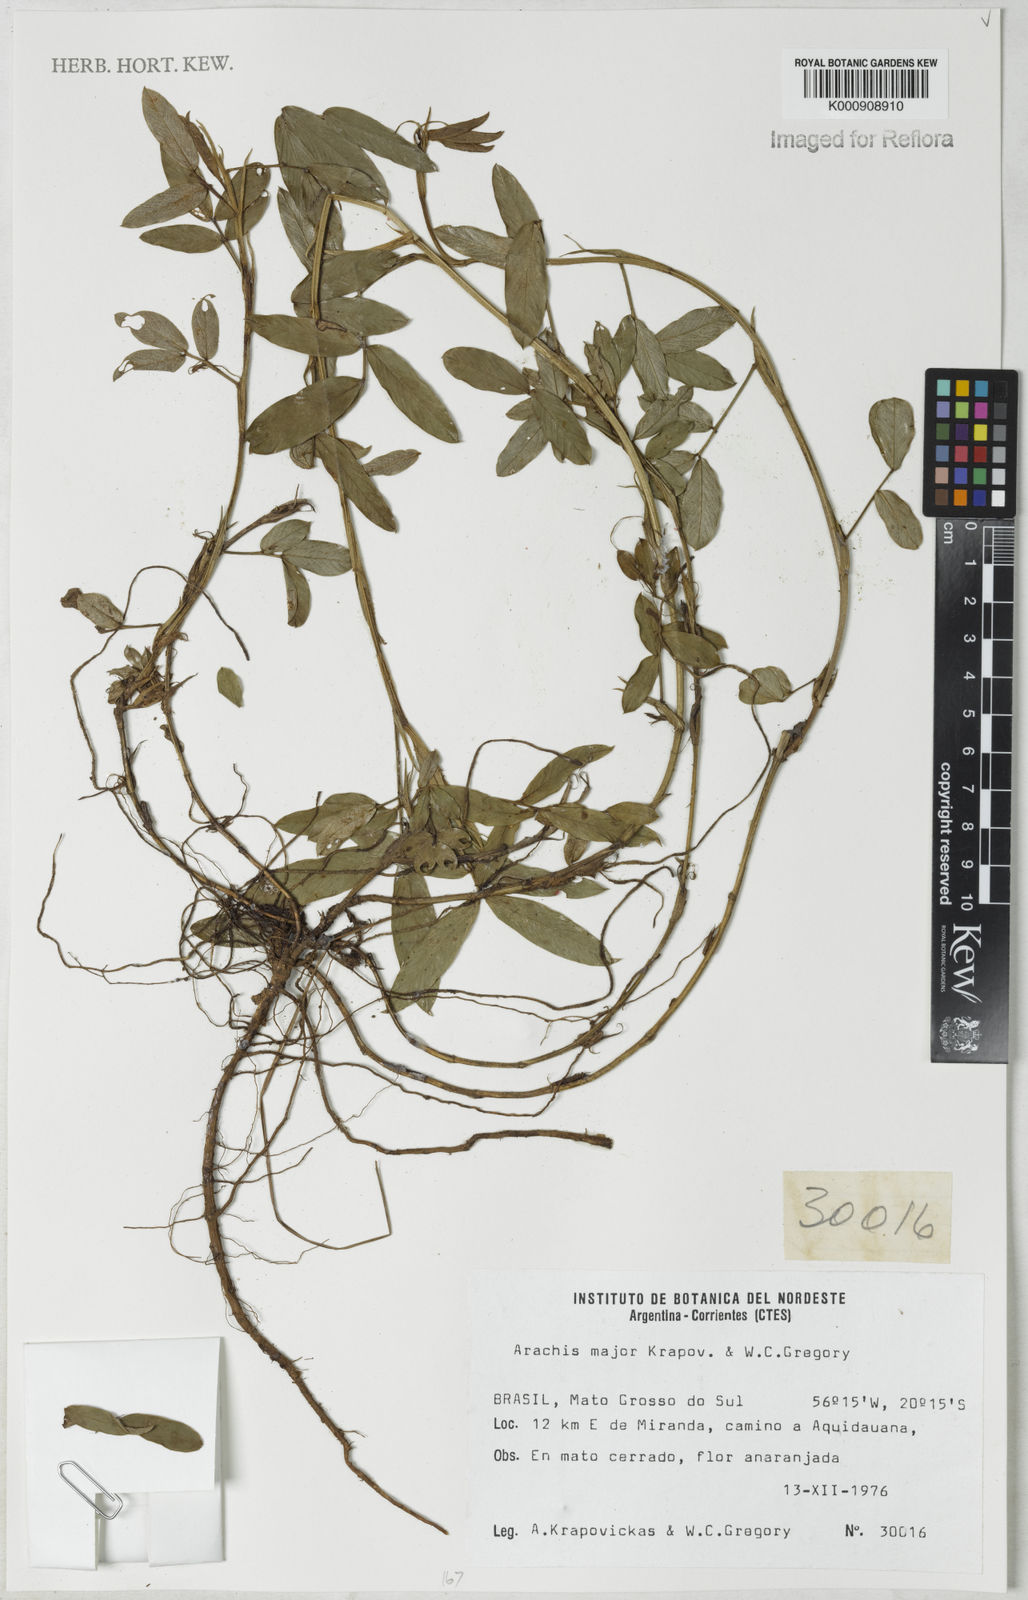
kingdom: Plantae
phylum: Tracheophyta
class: Magnoliopsida
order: Fabales
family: Fabaceae
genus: Arachis
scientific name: Arachis major
